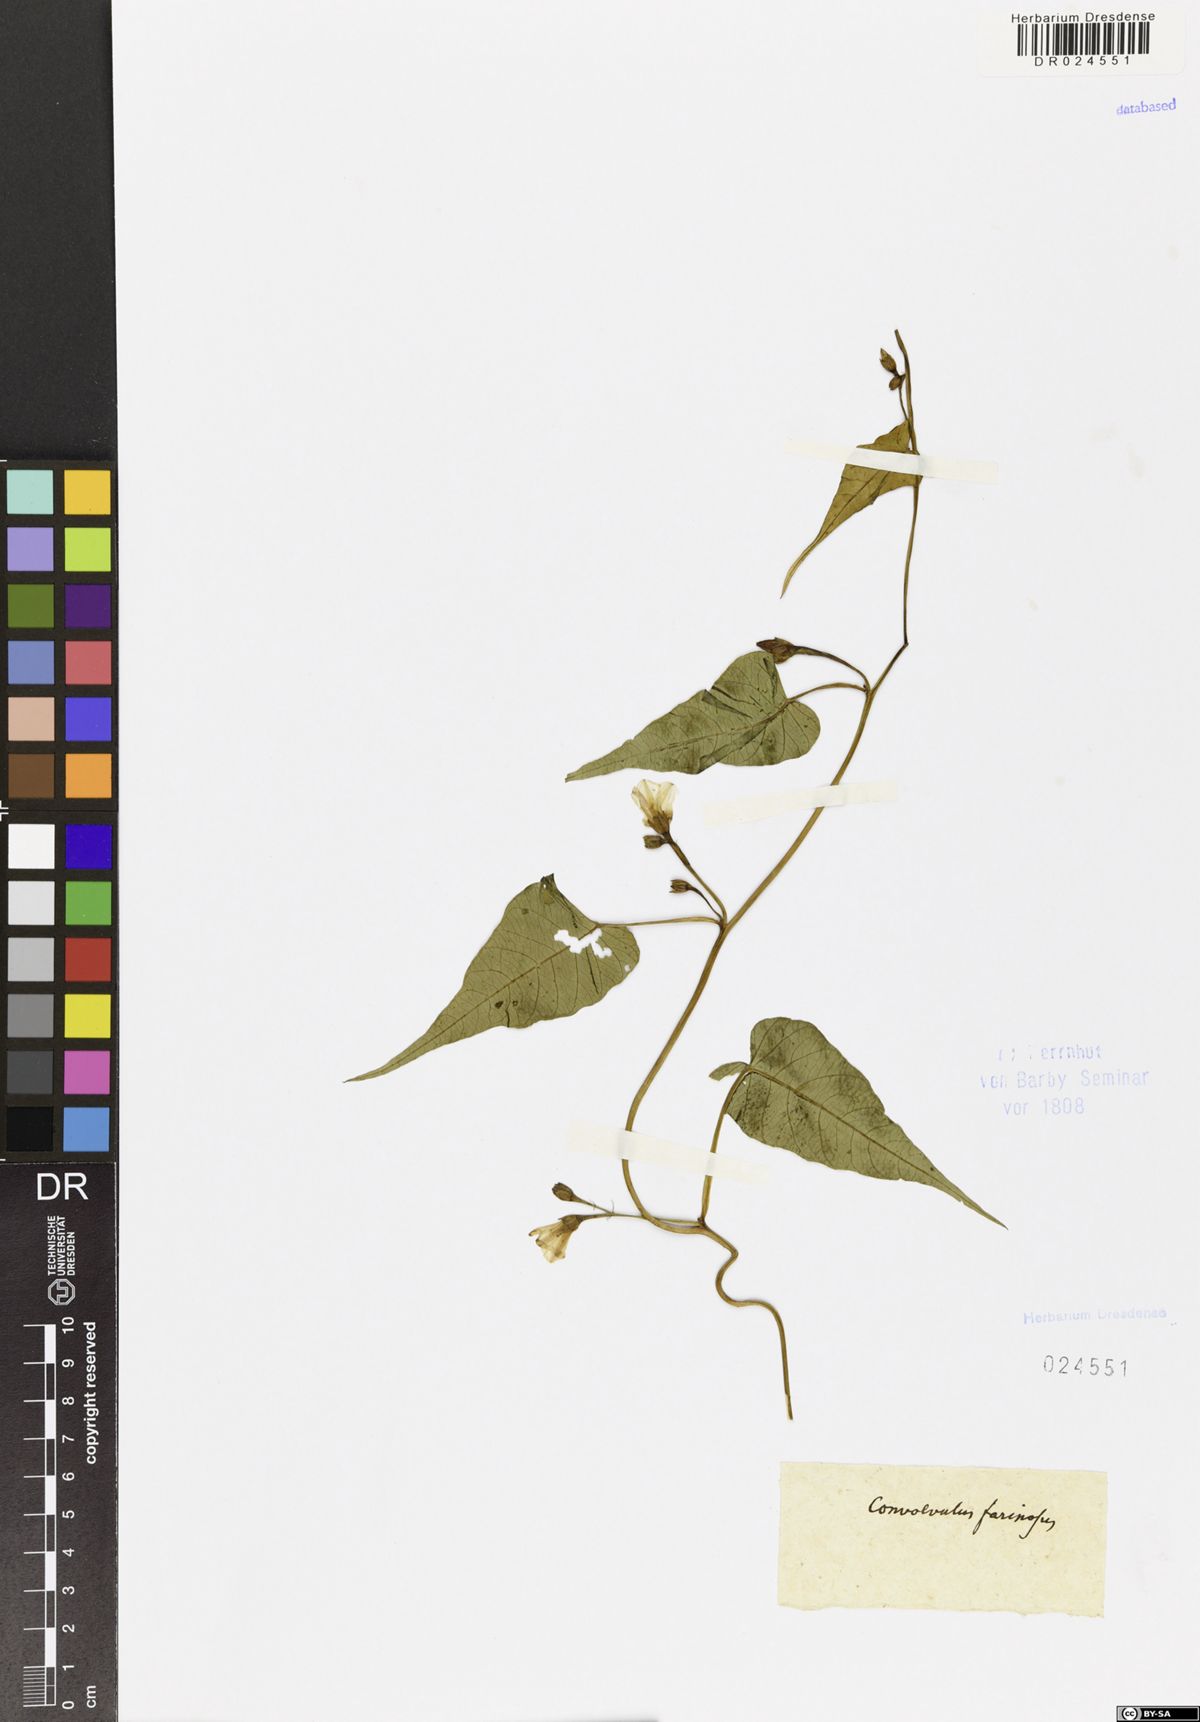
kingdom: Plantae
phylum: Tracheophyta
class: Magnoliopsida
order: Solanales
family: Convolvulaceae
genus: Convolvulus
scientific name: Convolvulus farinosus
